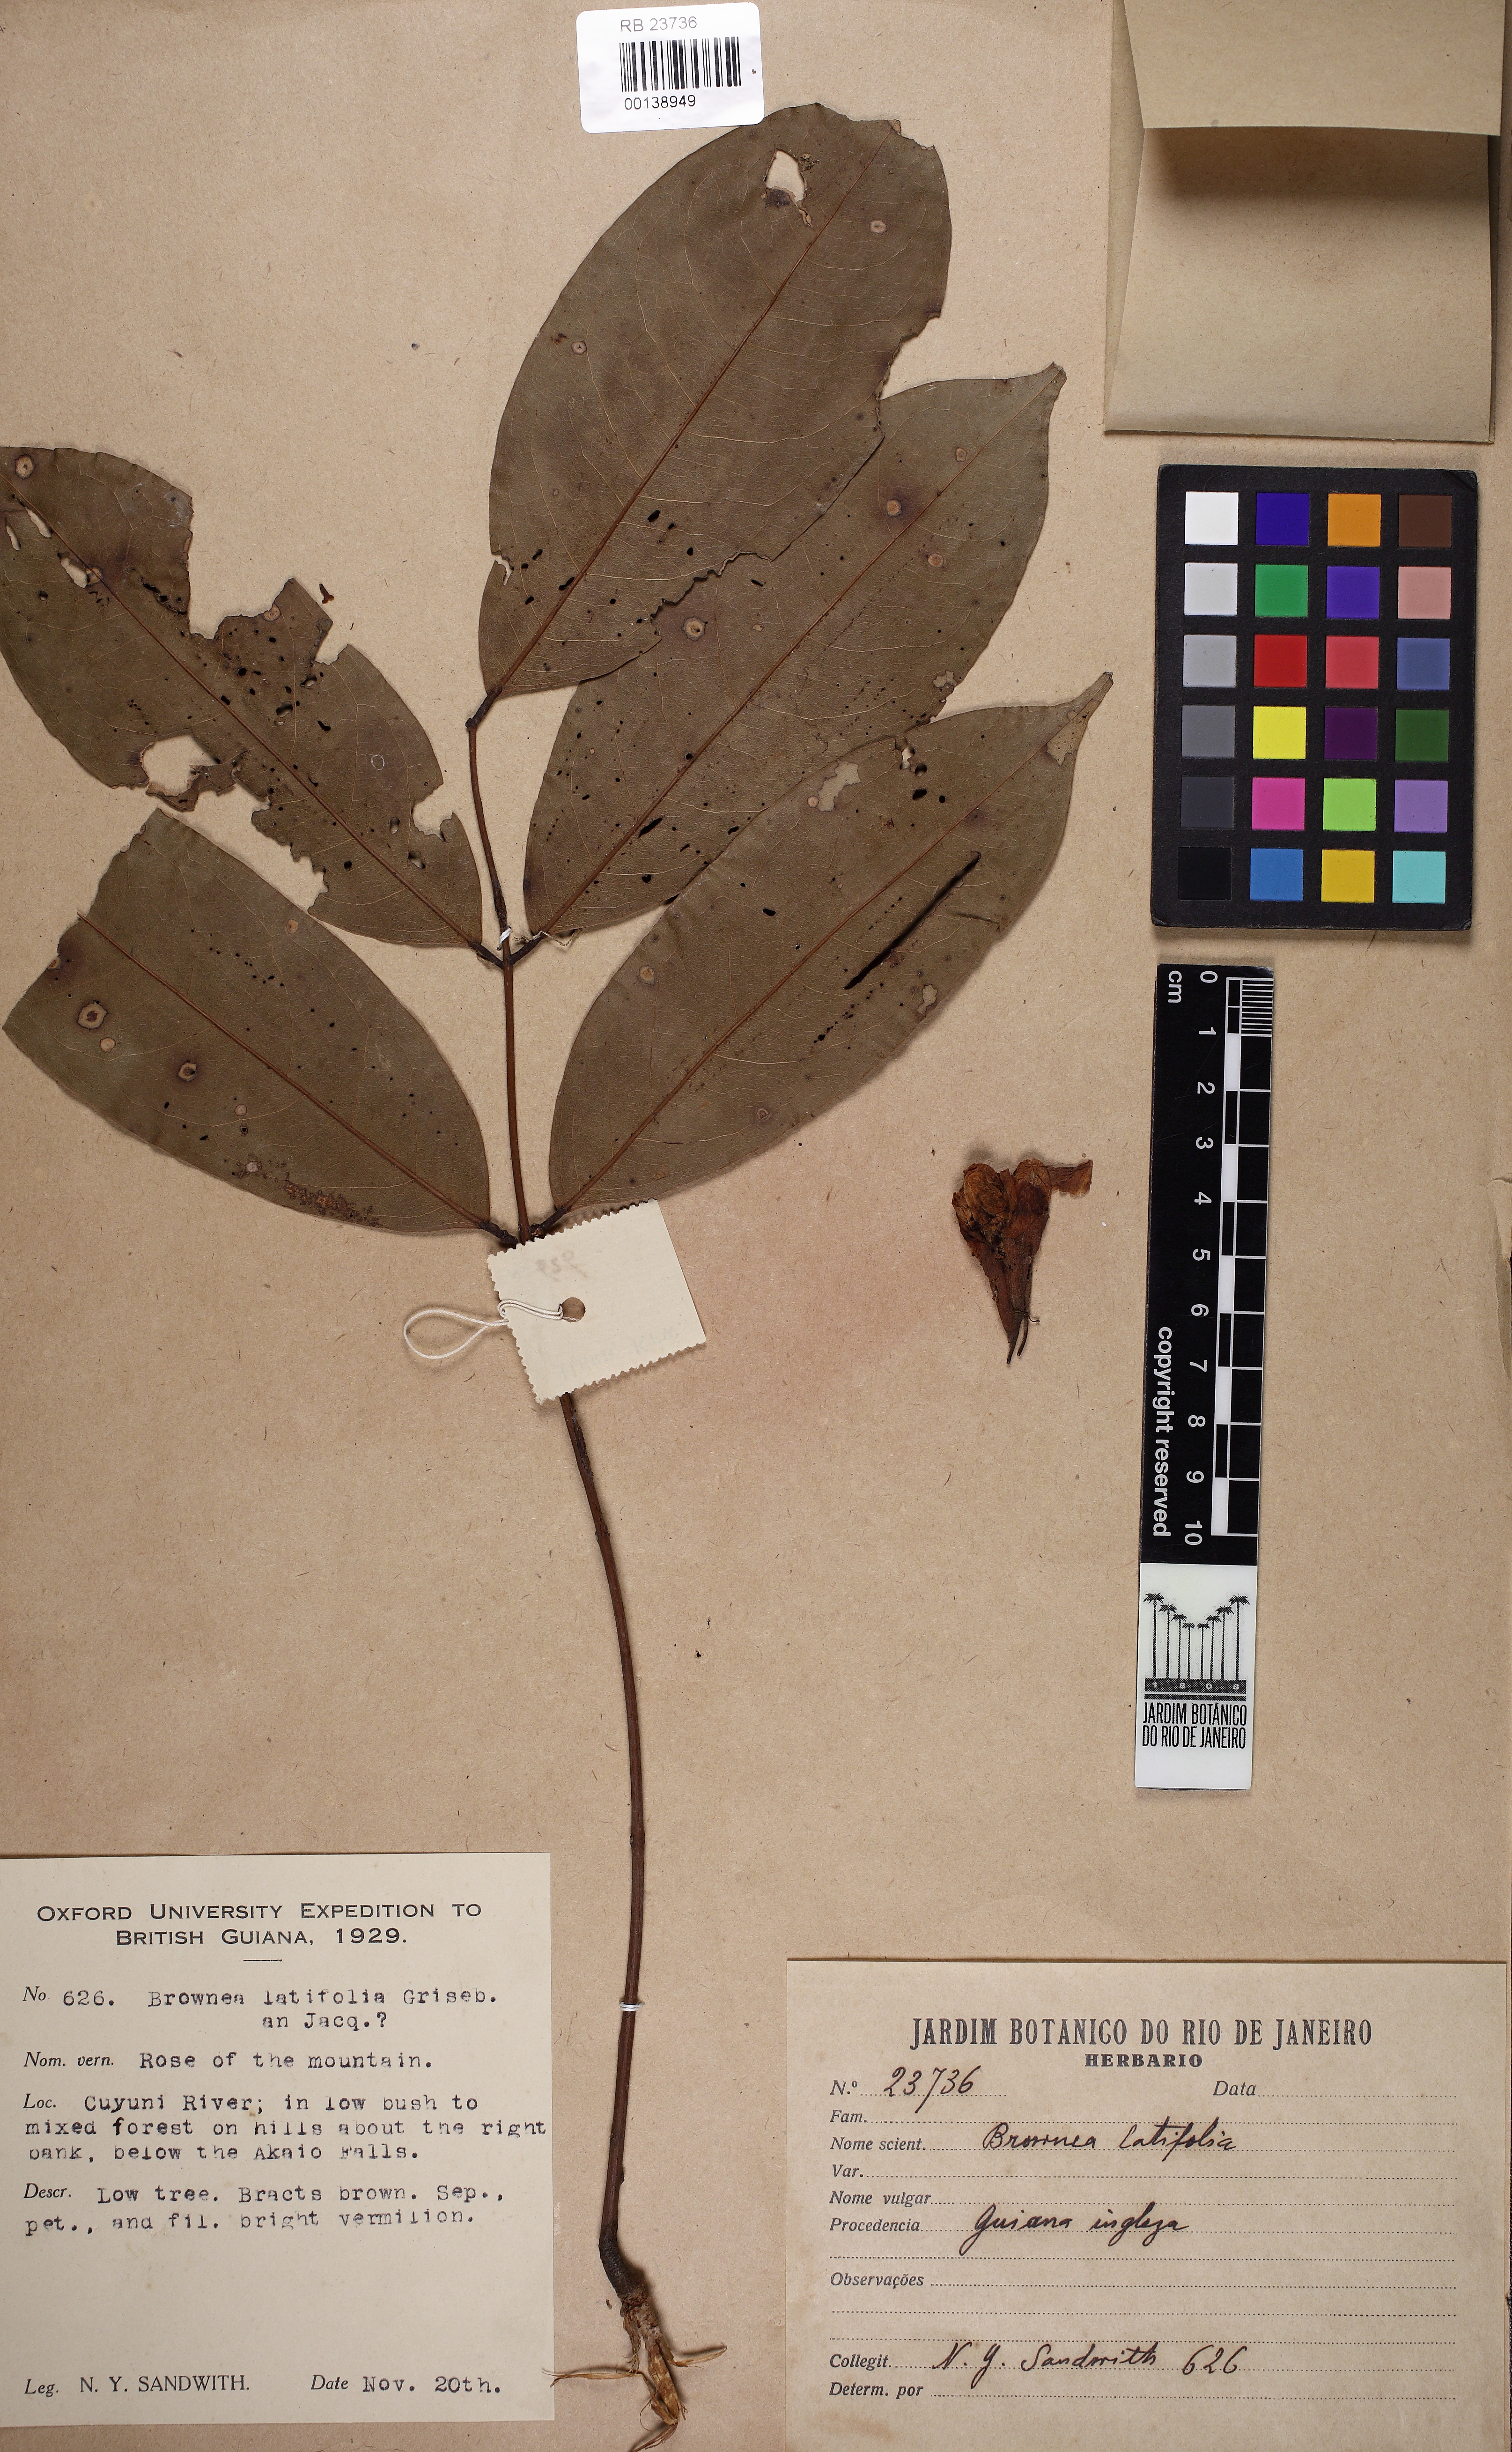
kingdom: Plantae
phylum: Tracheophyta
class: Magnoliopsida
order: Fabales
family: Fabaceae
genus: Brownea
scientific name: Brownea
